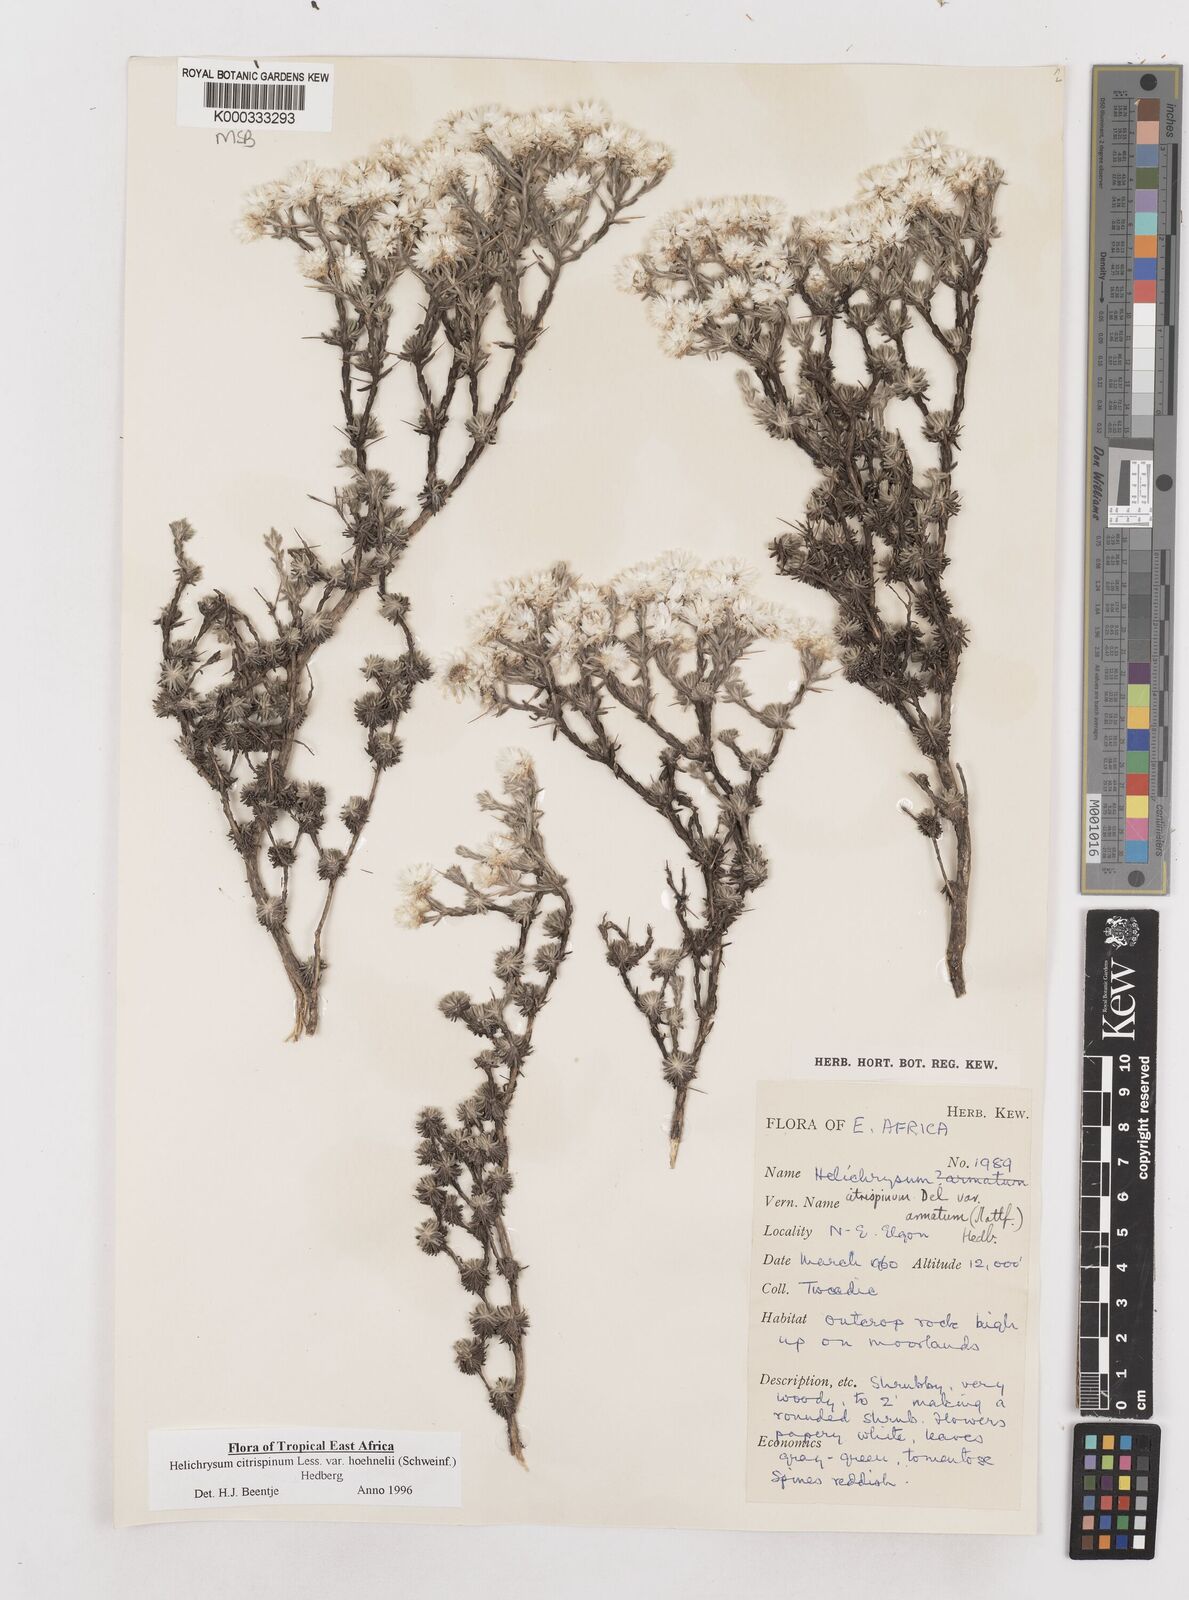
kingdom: Plantae
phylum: Tracheophyta
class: Magnoliopsida
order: Asterales
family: Asteraceae
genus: Helichrysum
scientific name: Helichrysum citrispinum
